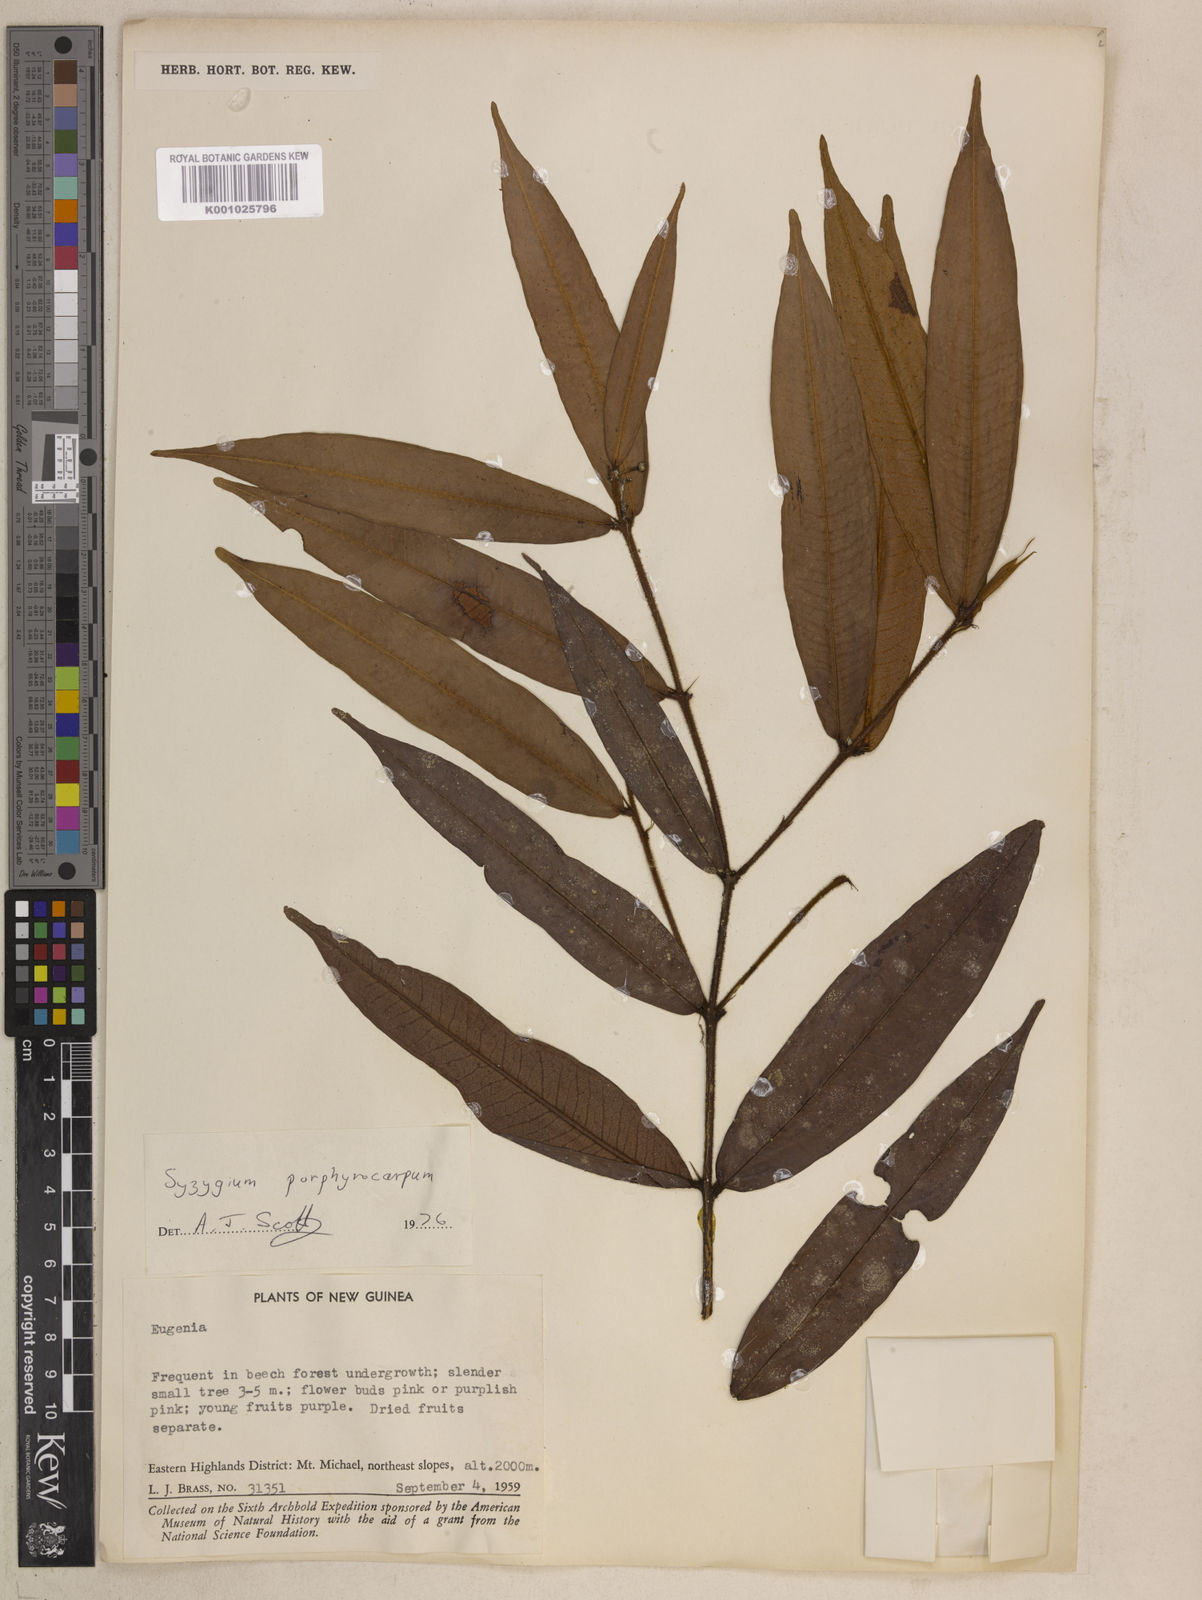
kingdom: Plantae
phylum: Tracheophyta
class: Magnoliopsida
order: Myrtales
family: Myrtaceae
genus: Syzygium
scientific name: Syzygium porphyrocarpum
